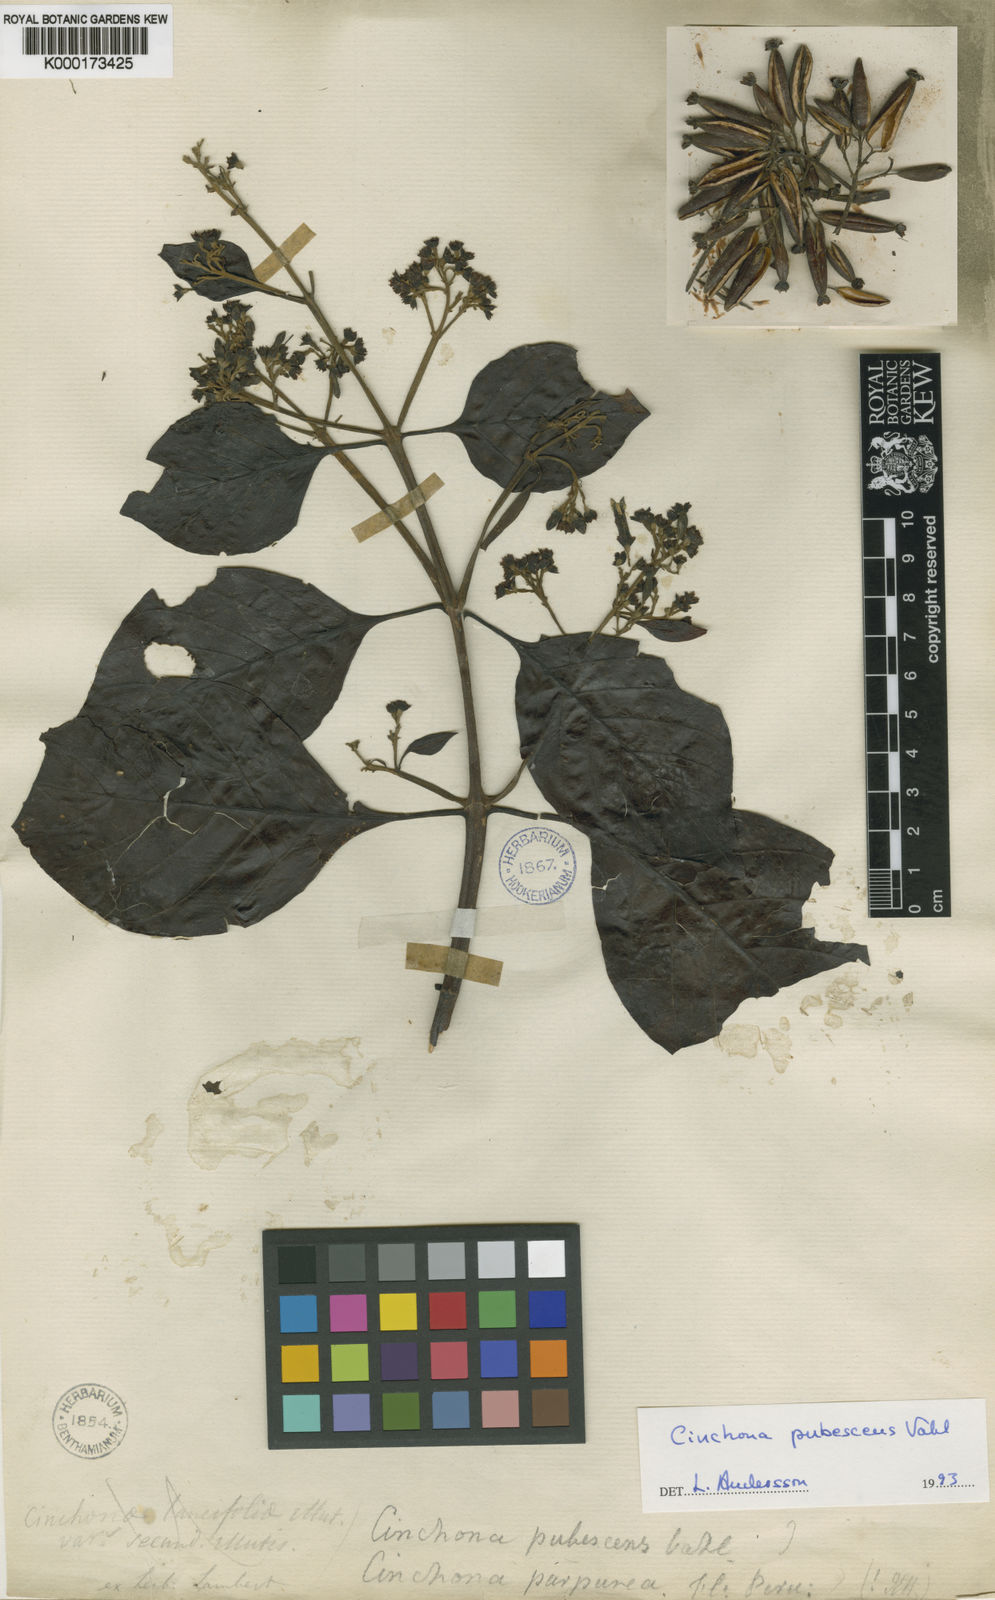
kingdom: Plantae
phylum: Tracheophyta
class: Magnoliopsida
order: Gentianales
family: Rubiaceae
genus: Cinchona
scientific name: Cinchona pubescens
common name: Quinine
